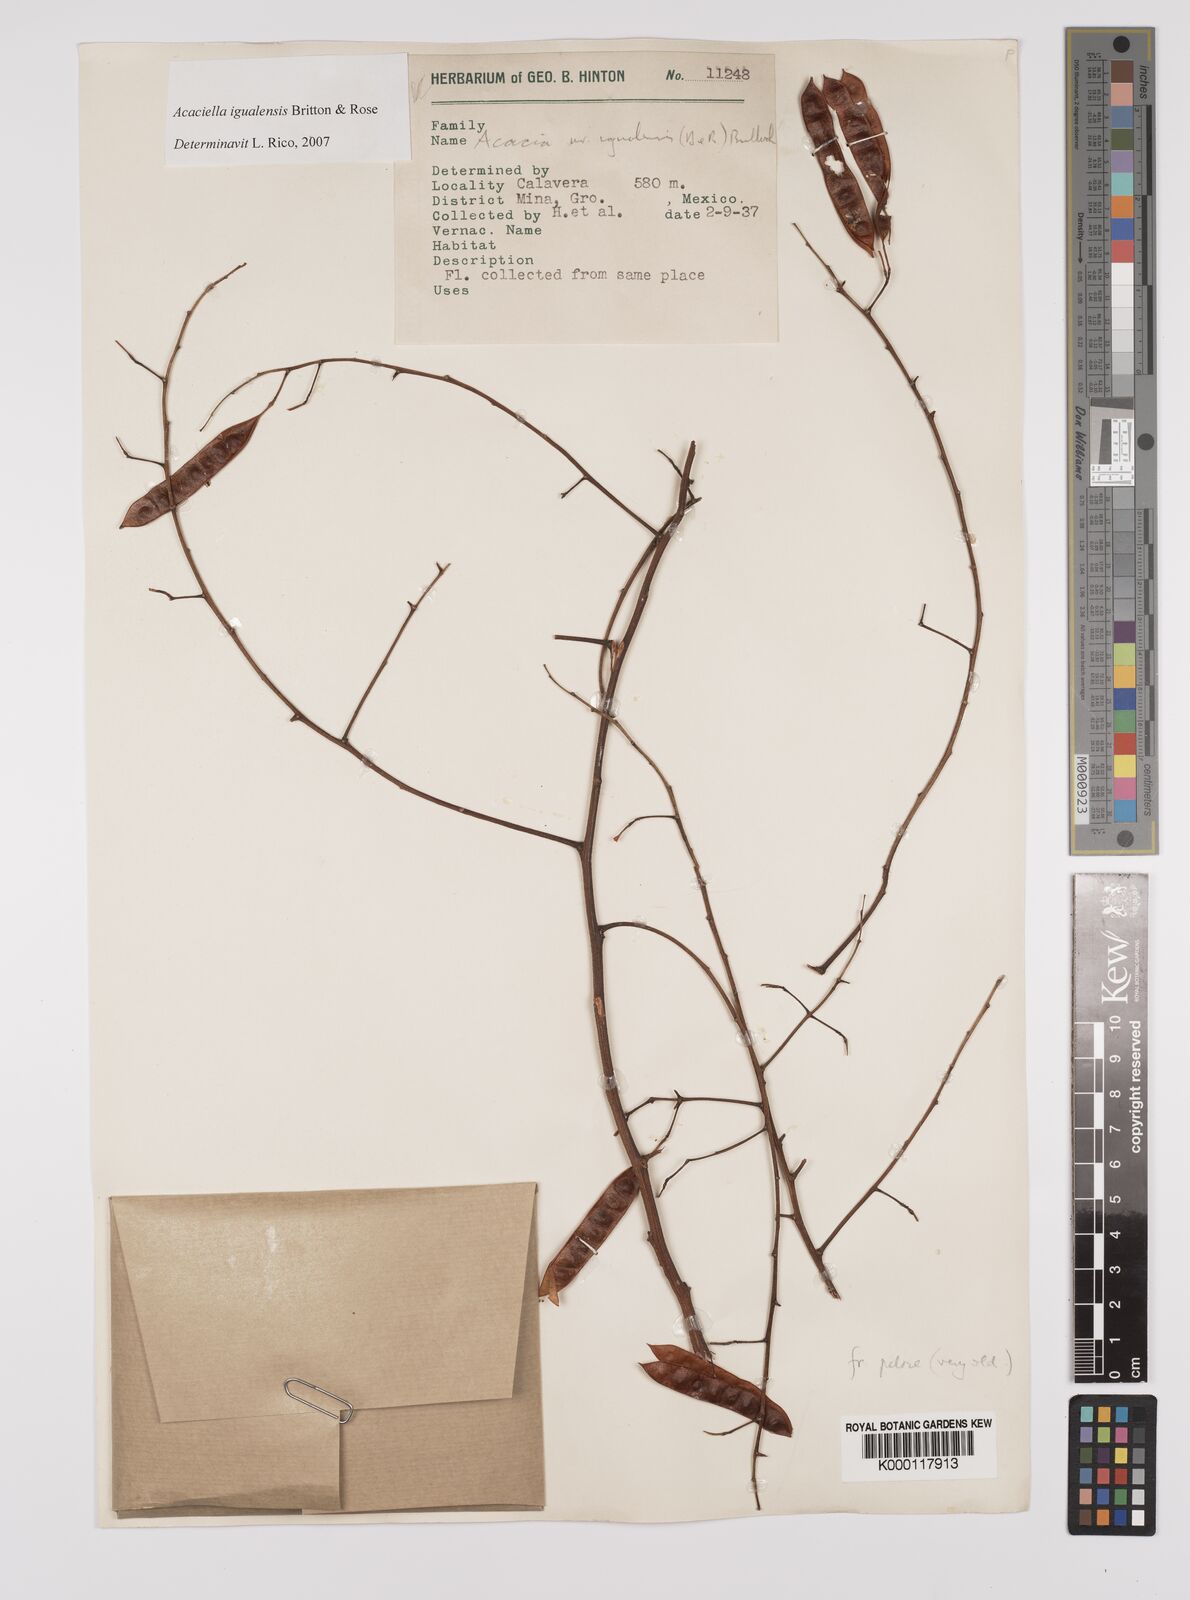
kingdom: Plantae
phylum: Tracheophyta
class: Magnoliopsida
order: Fabales
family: Fabaceae
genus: Acaciella
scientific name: Acaciella igualensis
